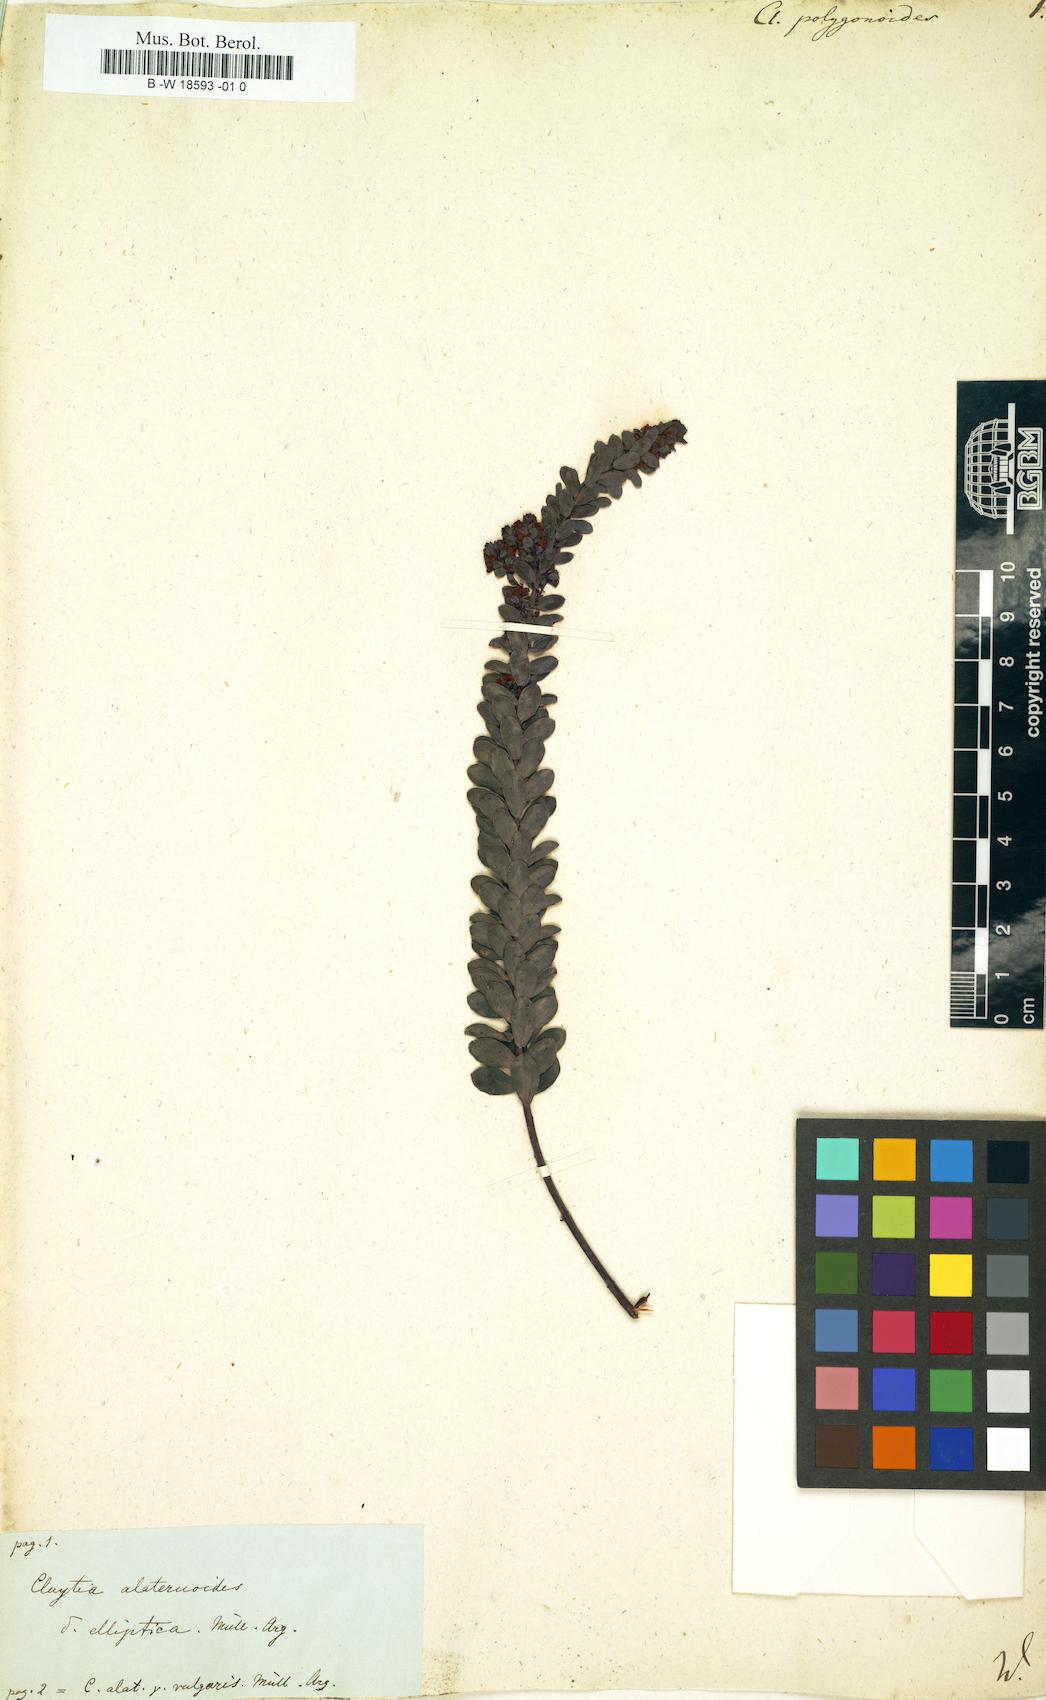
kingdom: Plantae
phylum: Tracheophyta
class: Magnoliopsida
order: Malpighiales
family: Peraceae
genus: Clutia
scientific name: Clutia
